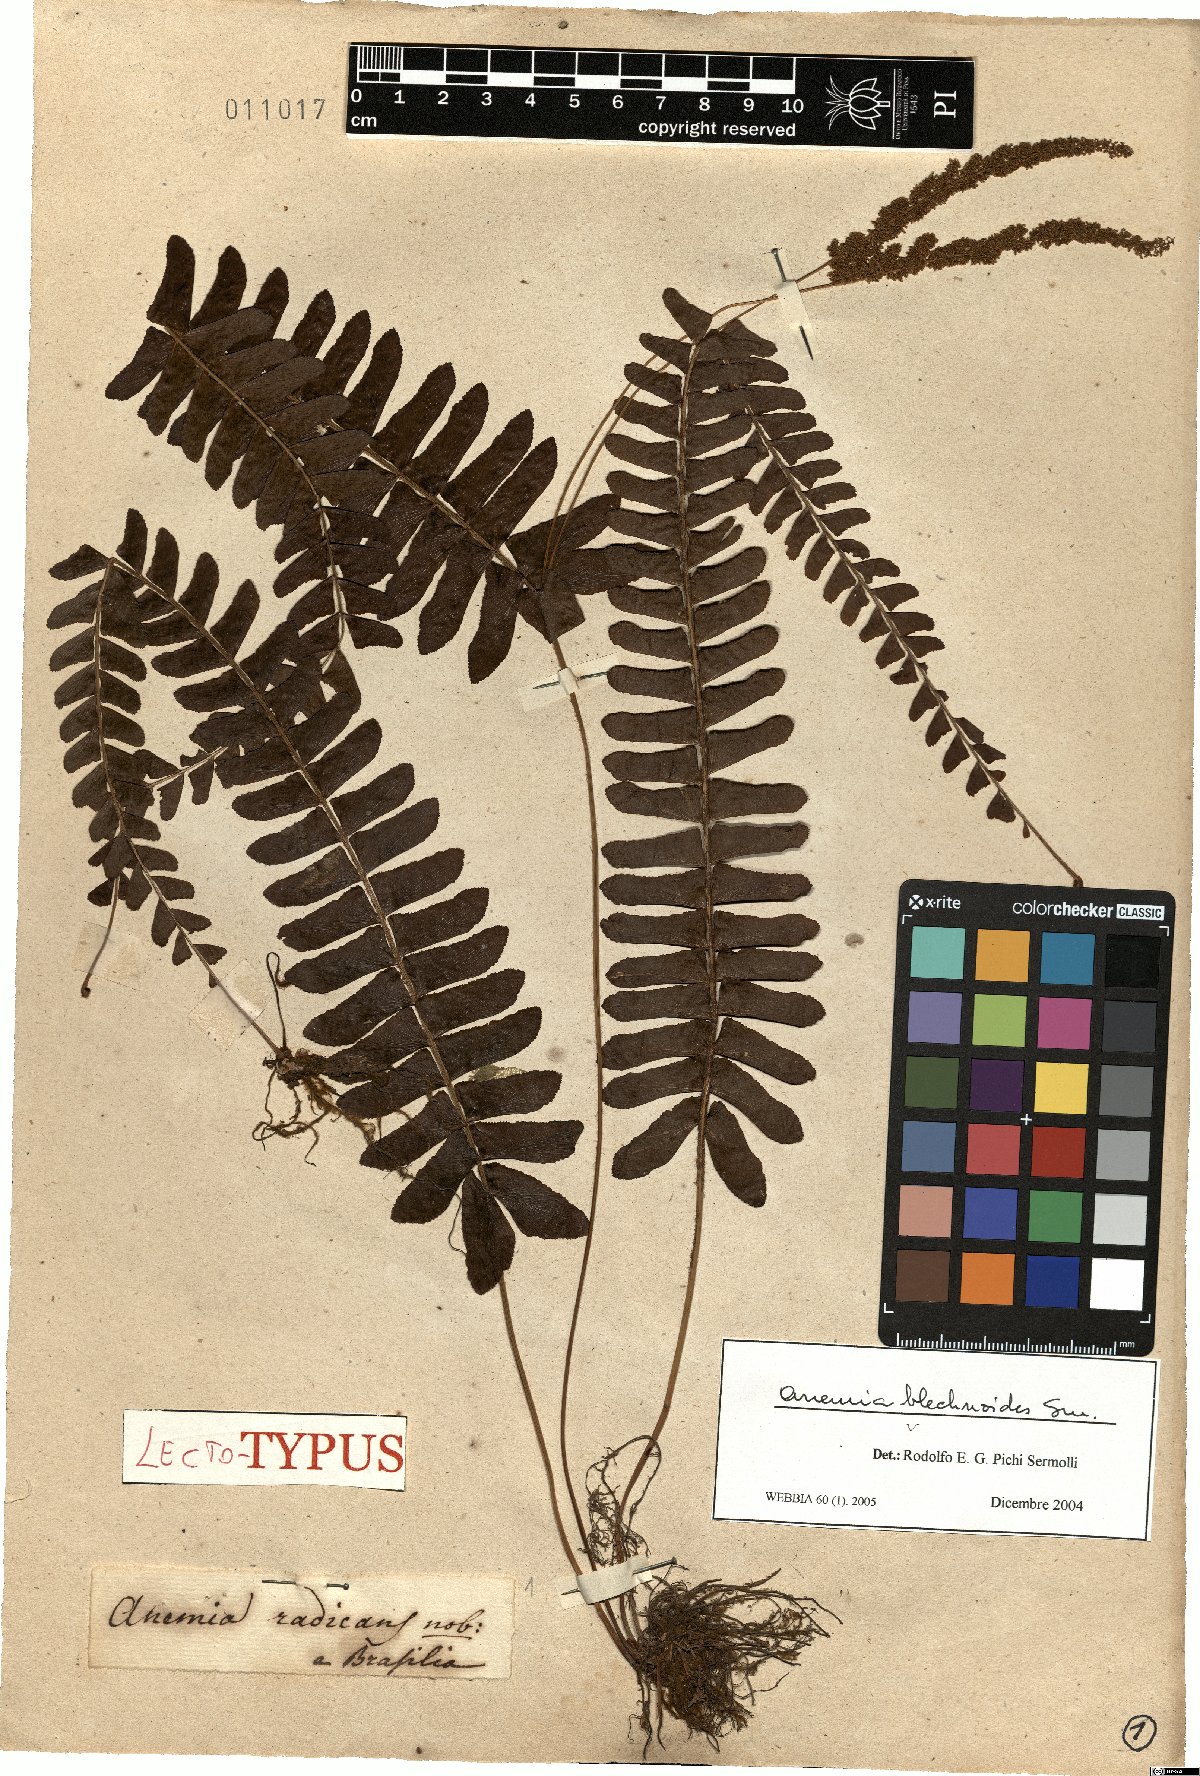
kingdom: Plantae
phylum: Tracheophyta
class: Polypodiopsida
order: Schizaeales
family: Anemiaceae
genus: Anemia
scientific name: Anemia blechnoides
